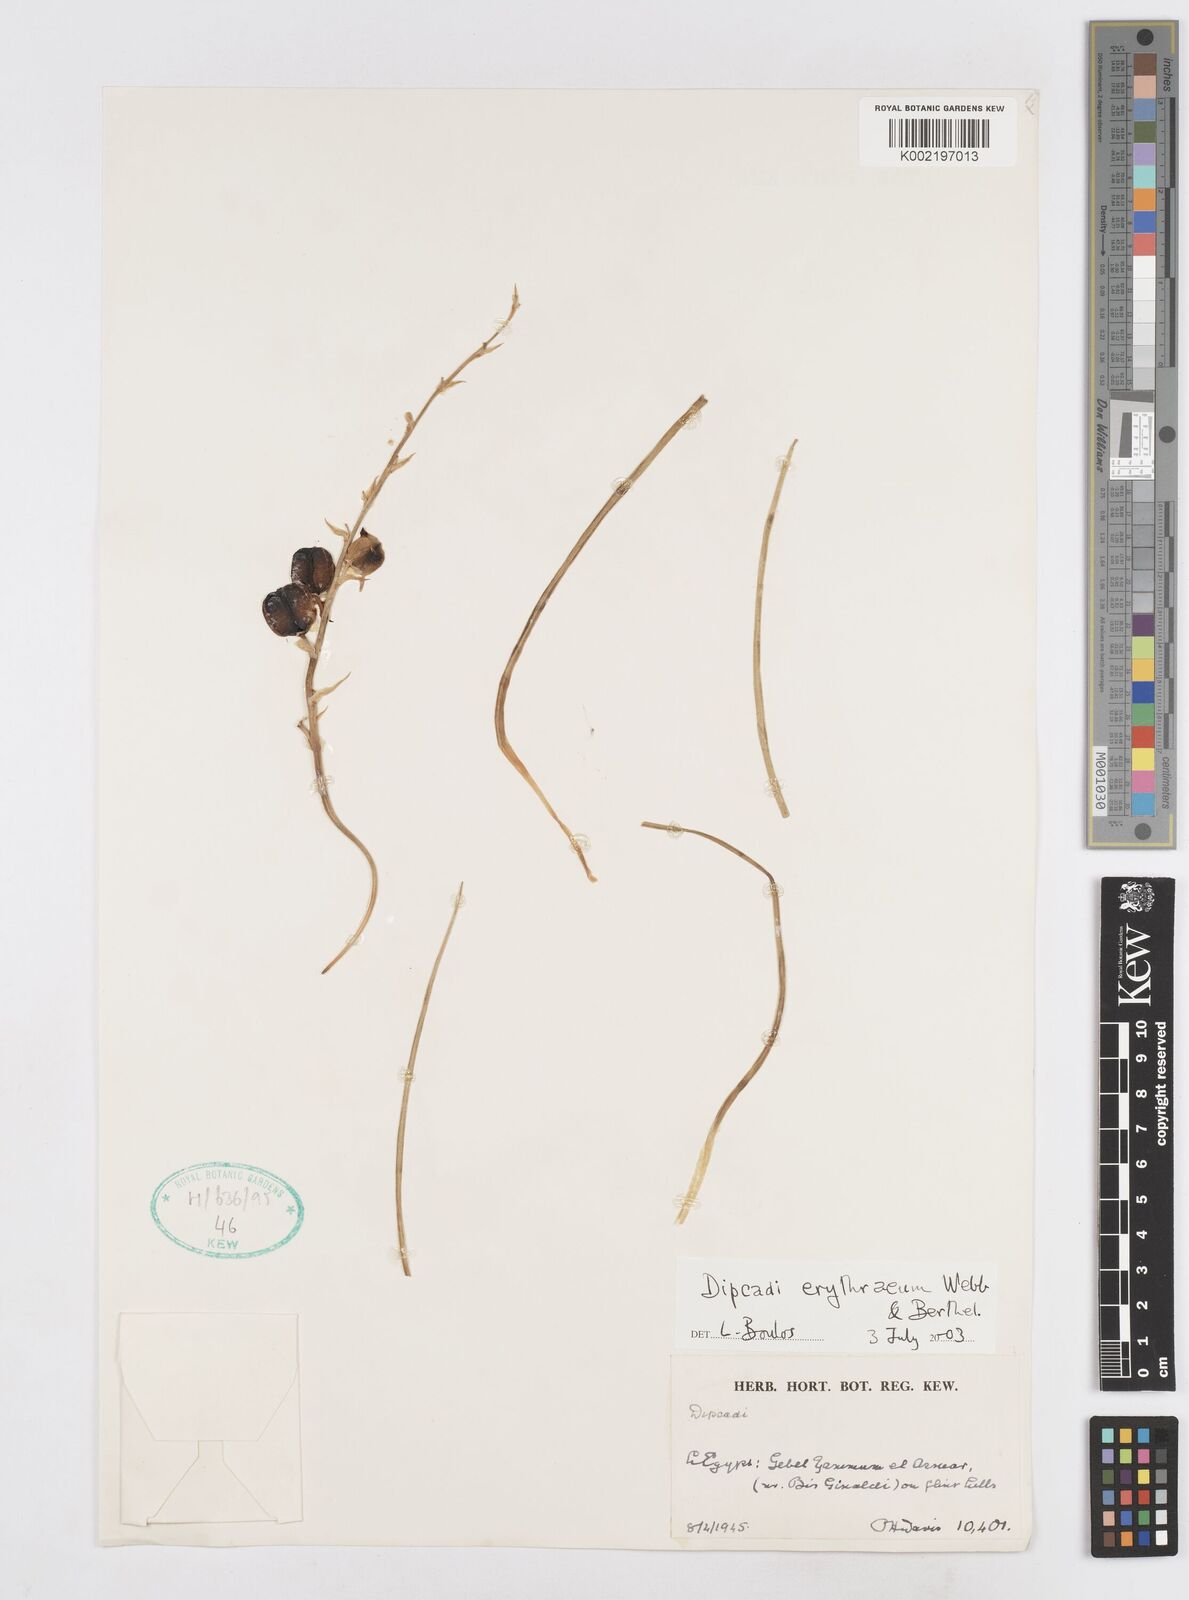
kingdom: Plantae
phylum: Tracheophyta
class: Liliopsida
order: Asparagales
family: Asparagaceae
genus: Dipcadi
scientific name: Dipcadi erythraeum
